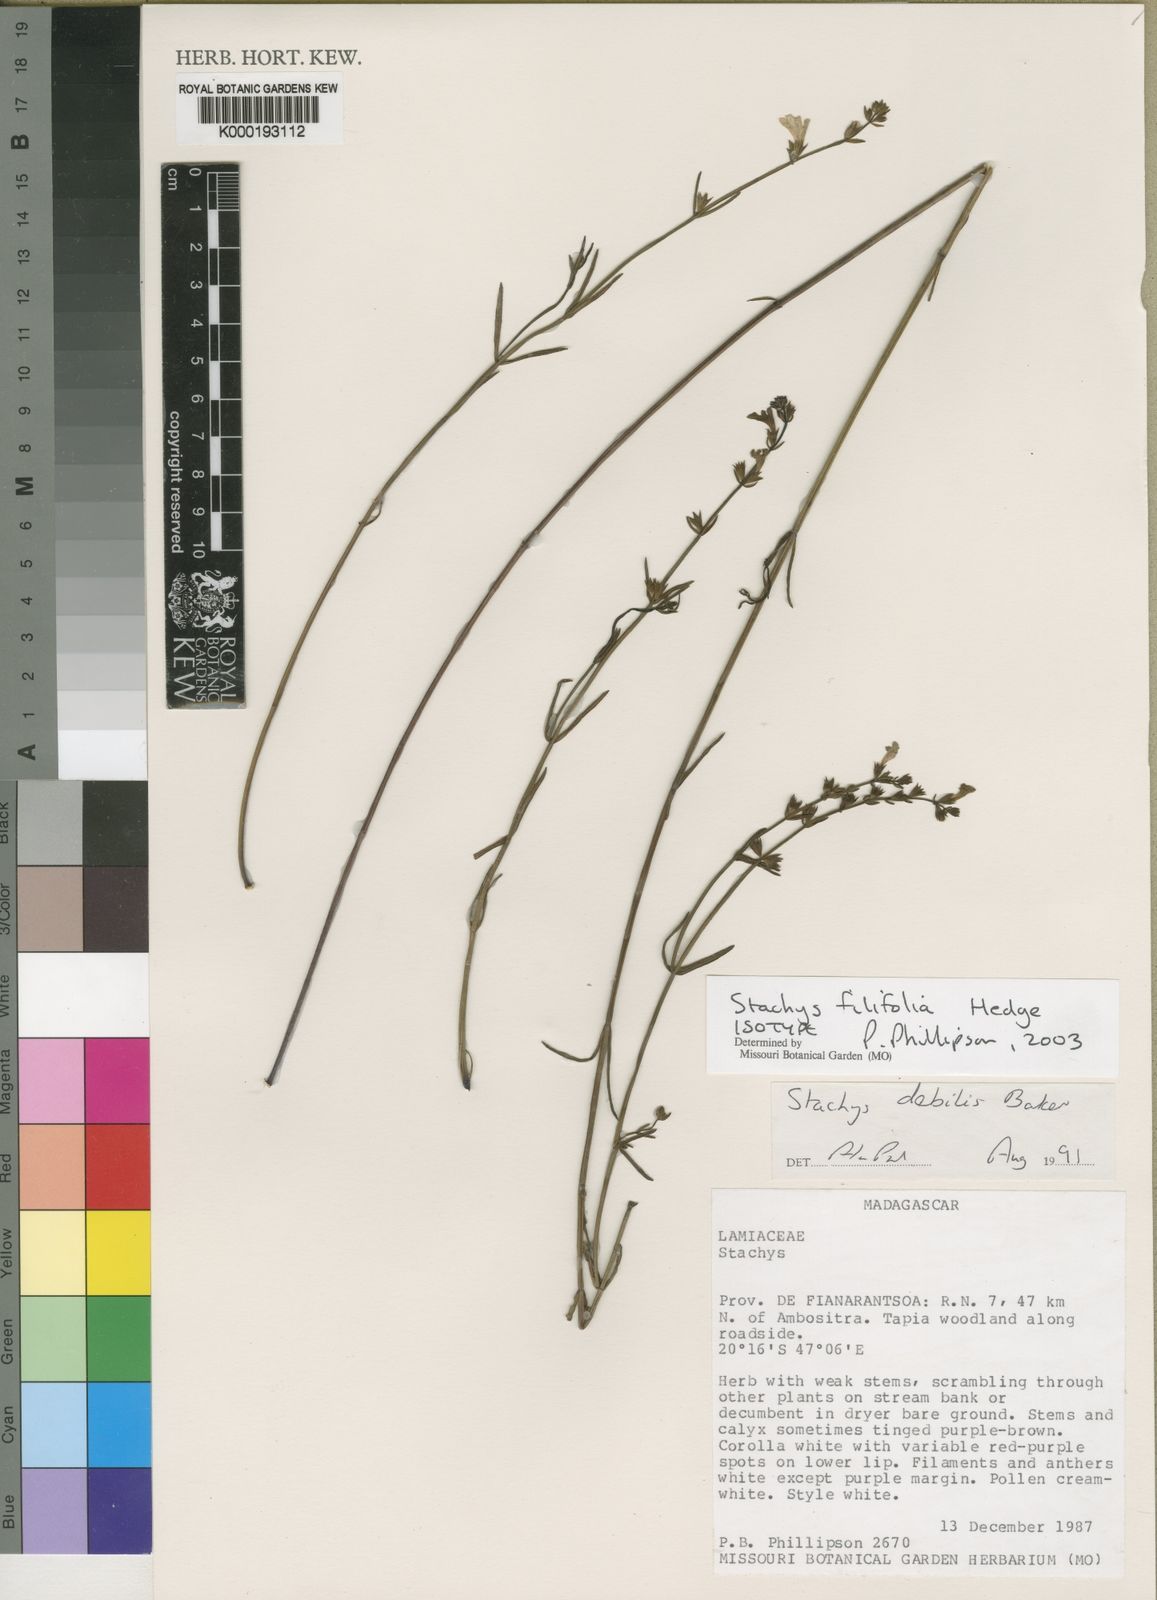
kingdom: Plantae
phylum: Tracheophyta
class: Magnoliopsida
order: Lamiales
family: Lamiaceae
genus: Stachys
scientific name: Stachys filifolia
